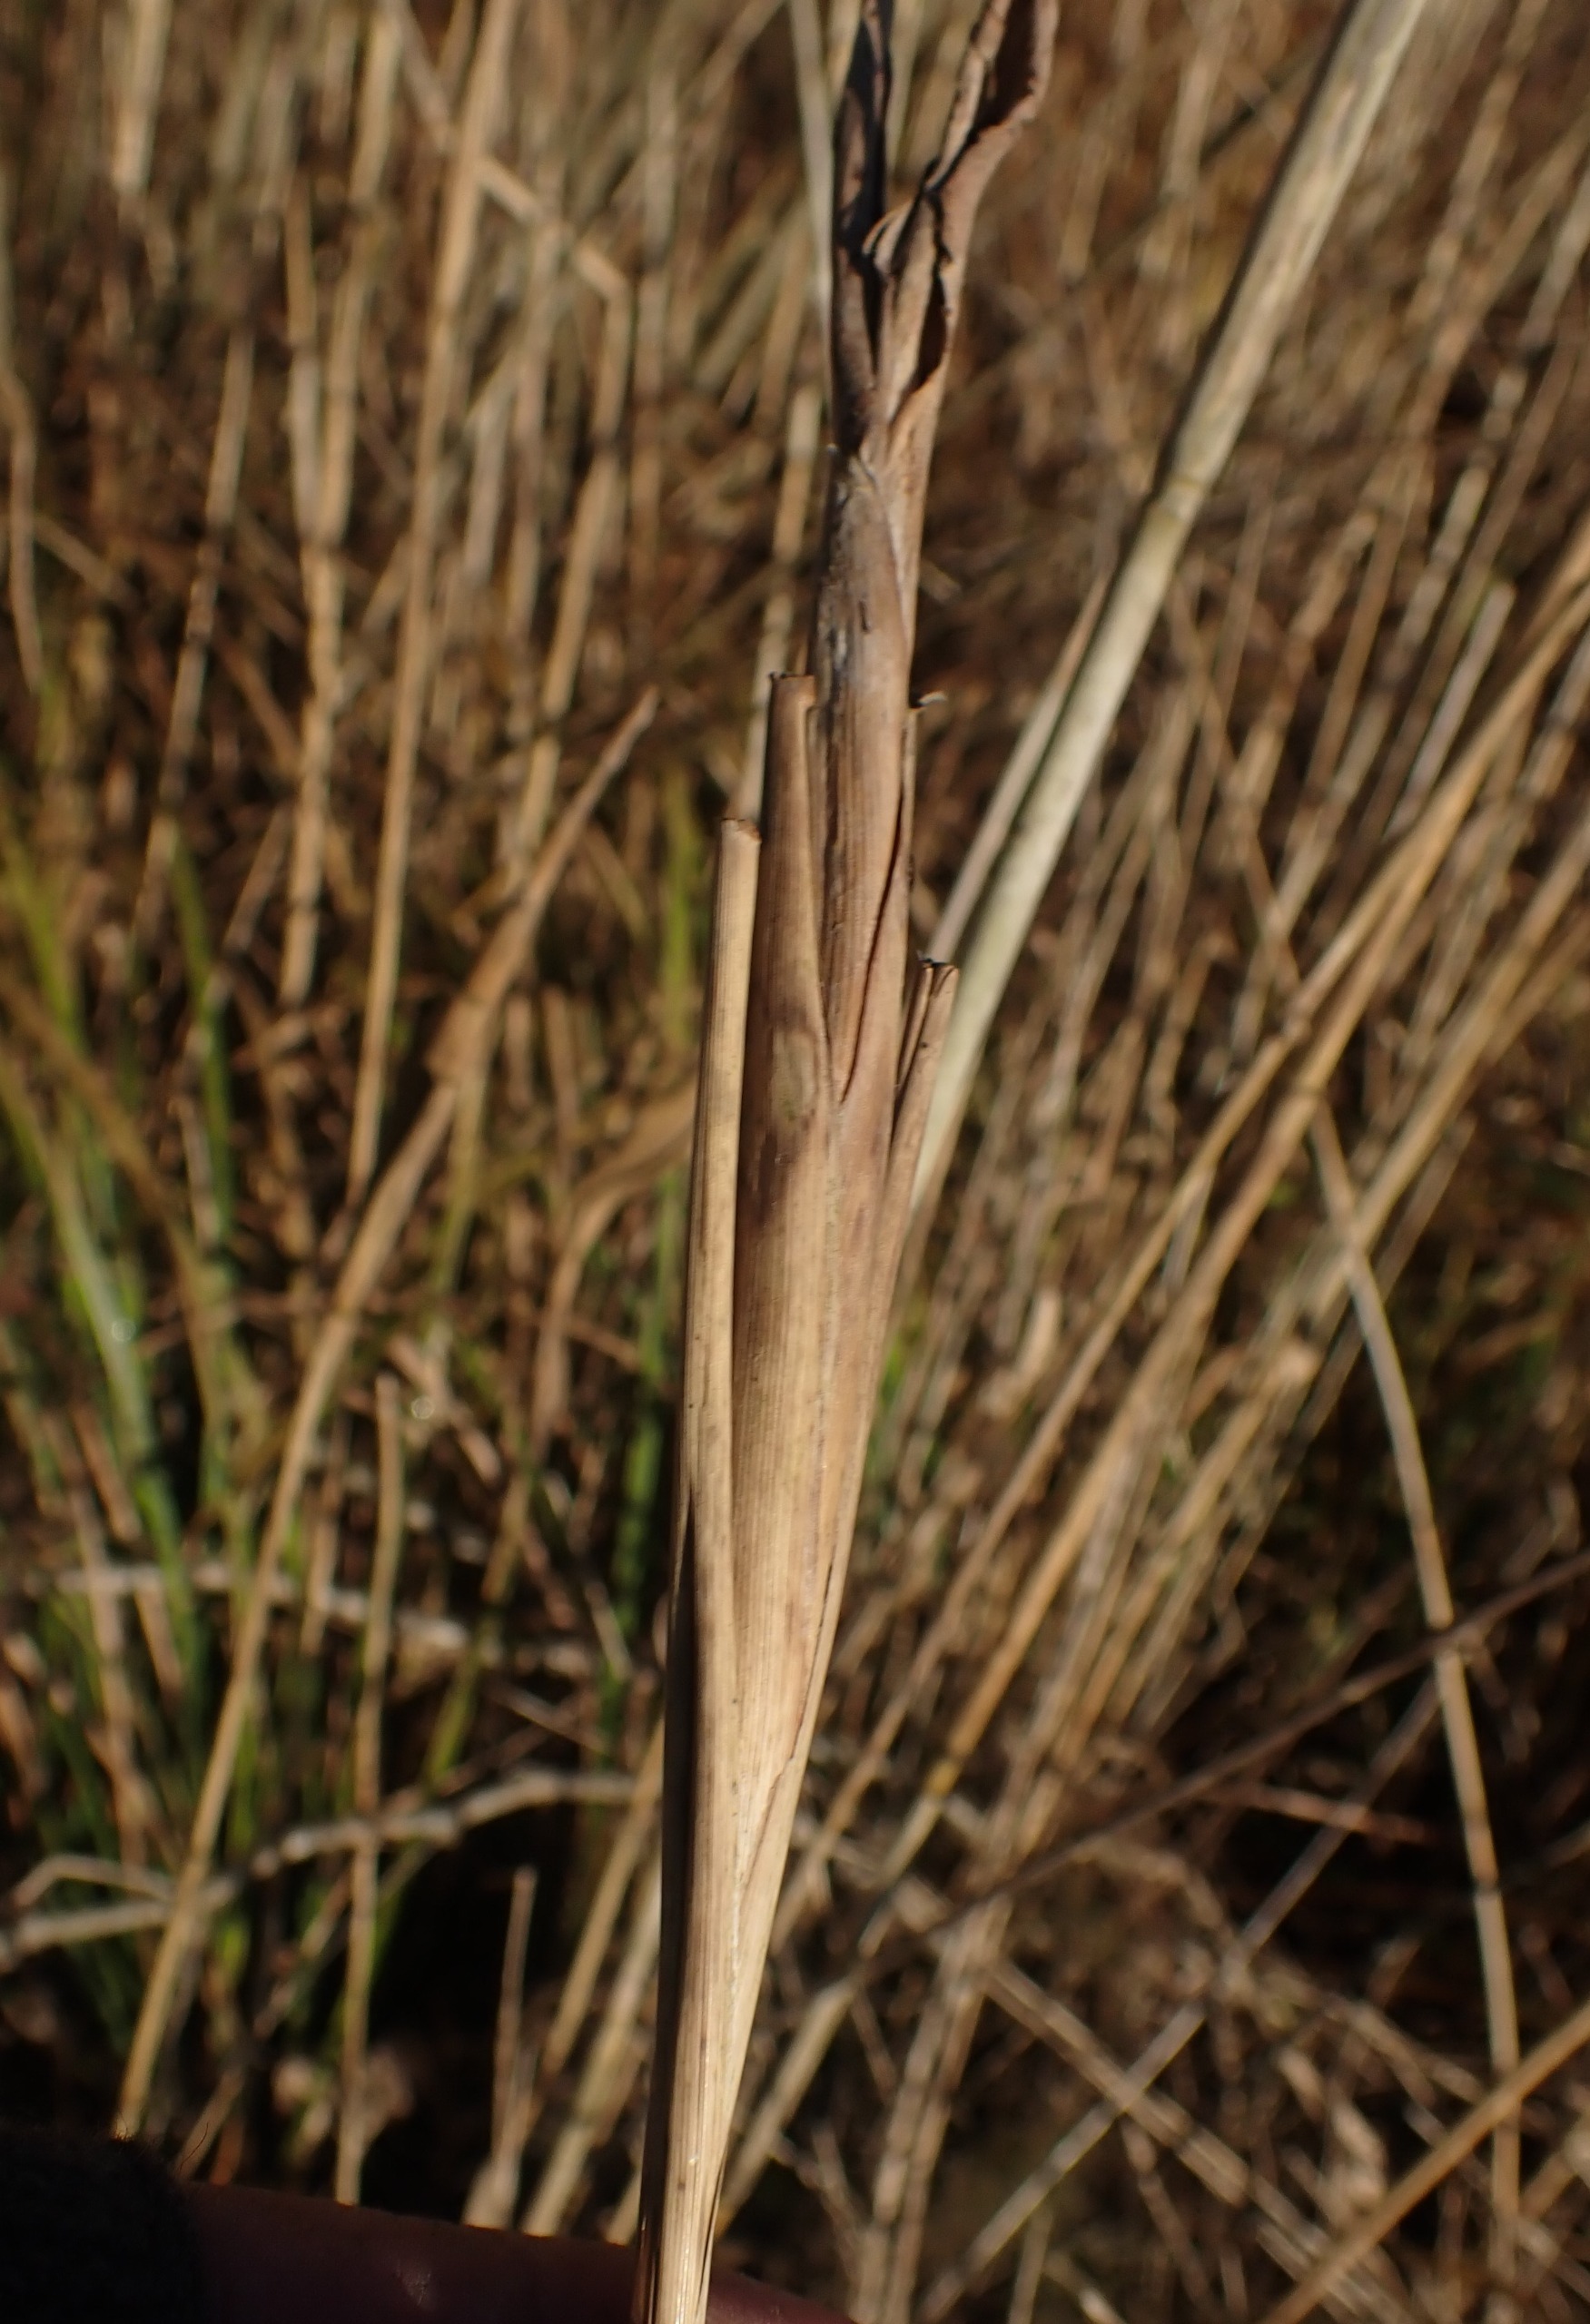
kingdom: Animalia
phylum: Arthropoda
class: Insecta
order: Diptera
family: Chloropidae
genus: Lipara
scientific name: Lipara lucens
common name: Stor cigargalle-fritflue
